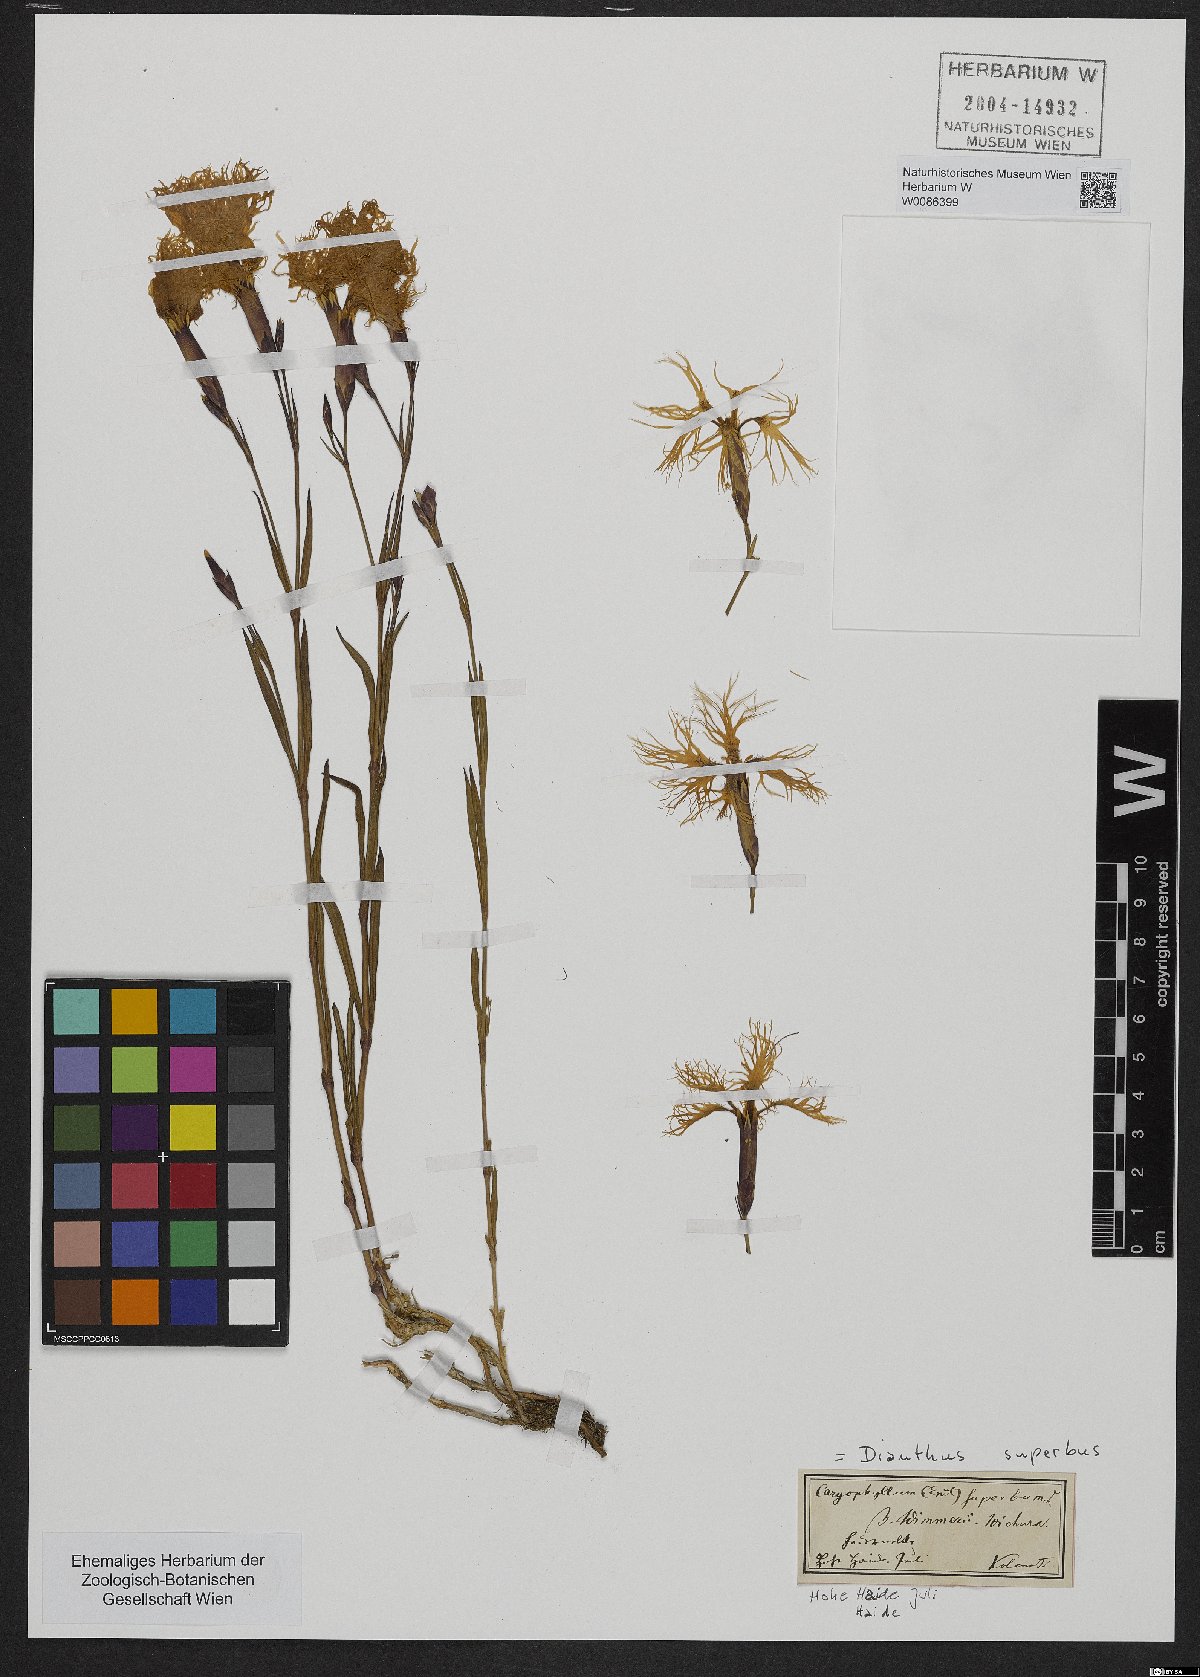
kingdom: Plantae
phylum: Tracheophyta
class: Magnoliopsida
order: Caryophyllales
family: Caryophyllaceae
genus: Dianthus
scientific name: Dianthus superbus
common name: Fringed pink
